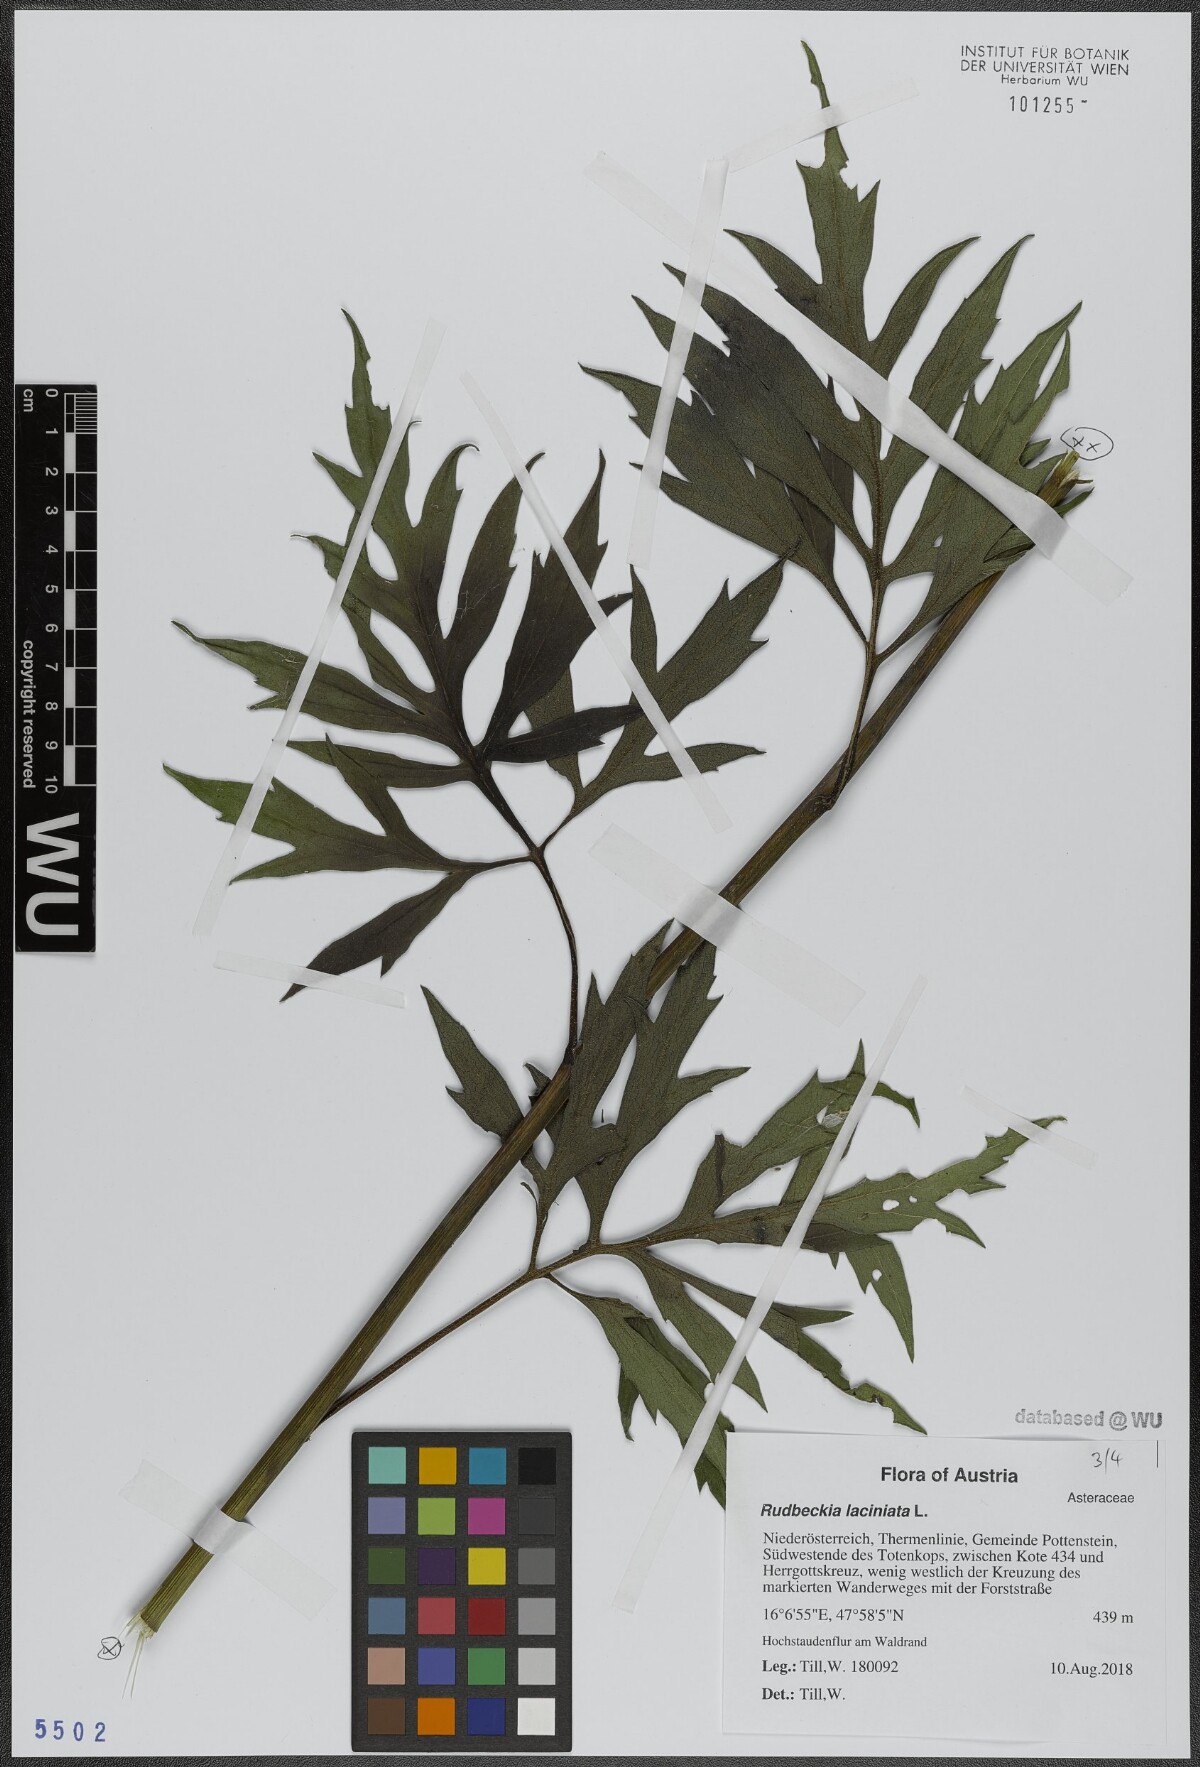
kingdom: Plantae
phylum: Tracheophyta
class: Magnoliopsida
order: Asterales
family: Asteraceae
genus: Rudbeckia
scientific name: Rudbeckia laciniata
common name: Coneflower
